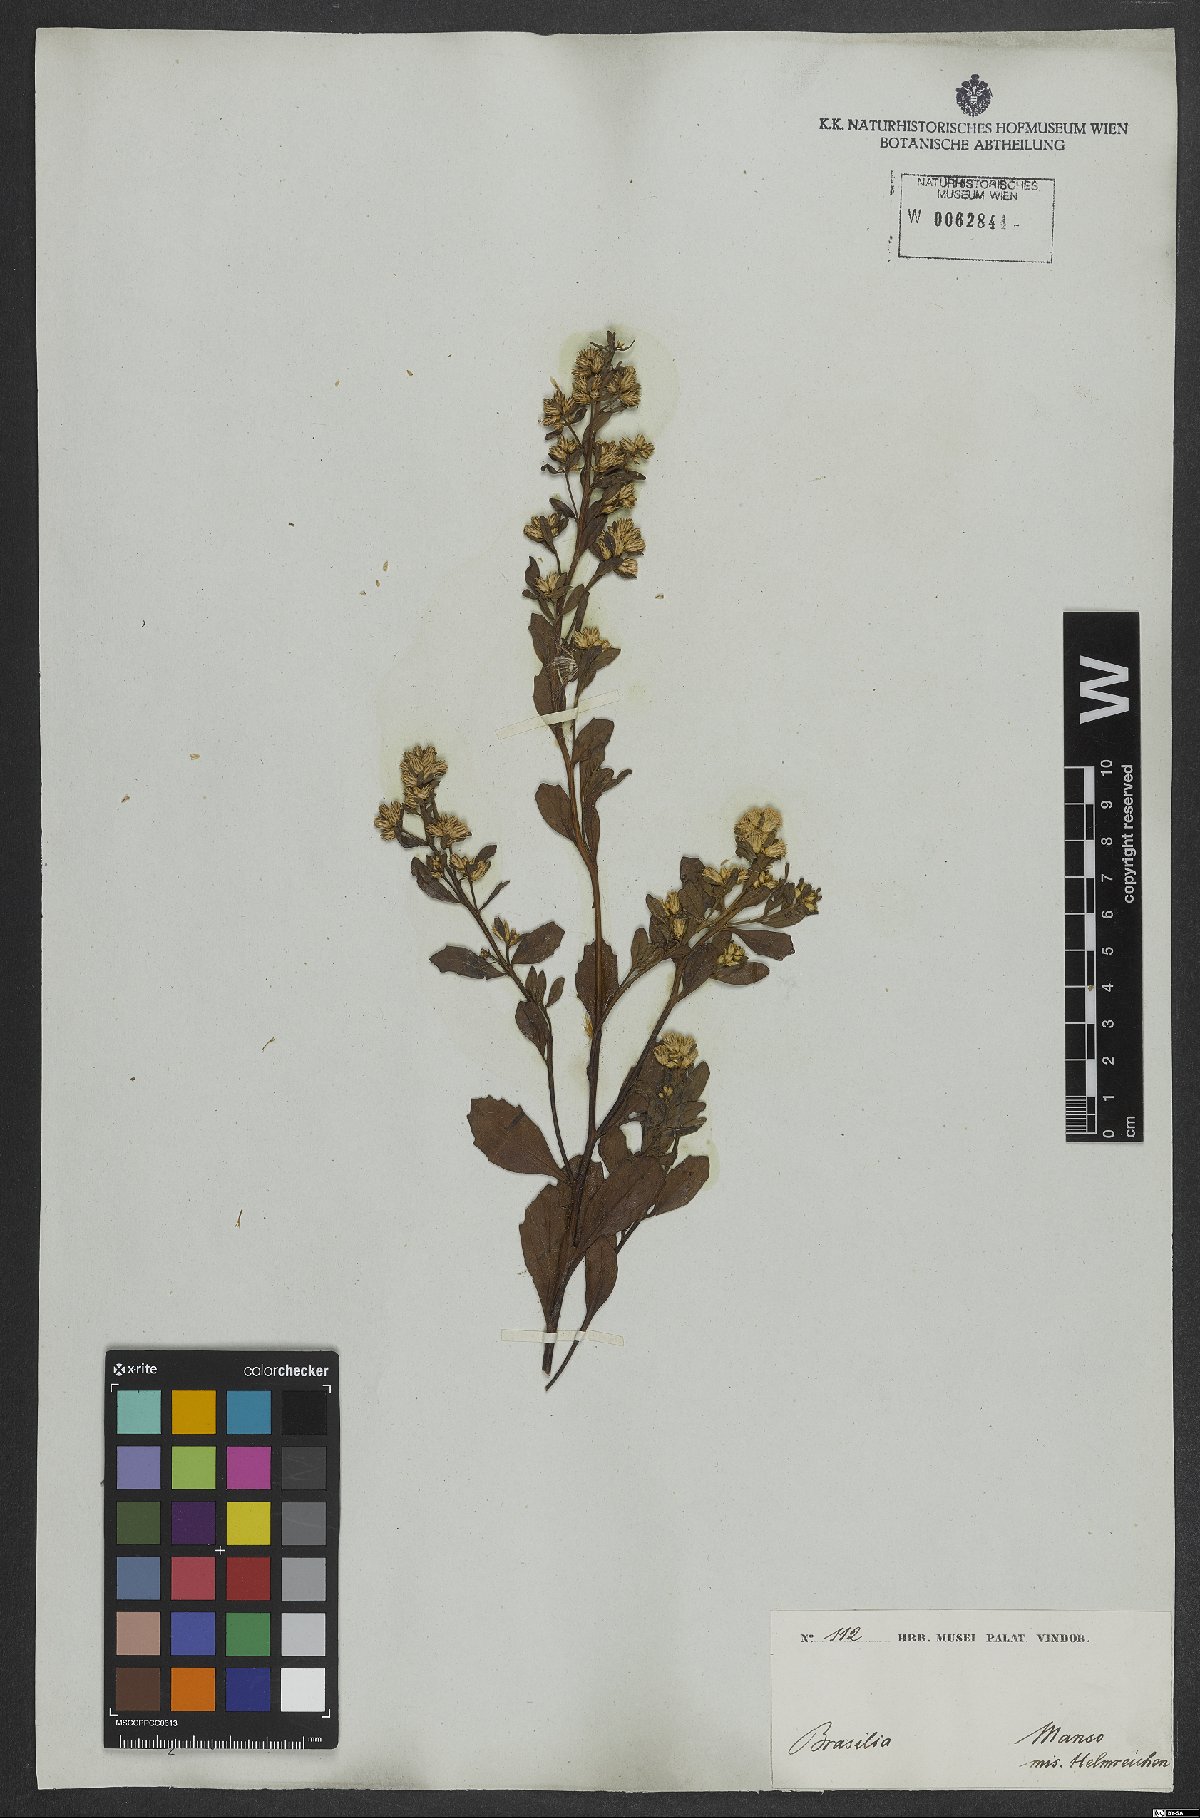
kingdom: Plantae
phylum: Tracheophyta
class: Magnoliopsida
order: Asterales
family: Asteraceae
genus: Baccharis
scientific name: Baccharis
